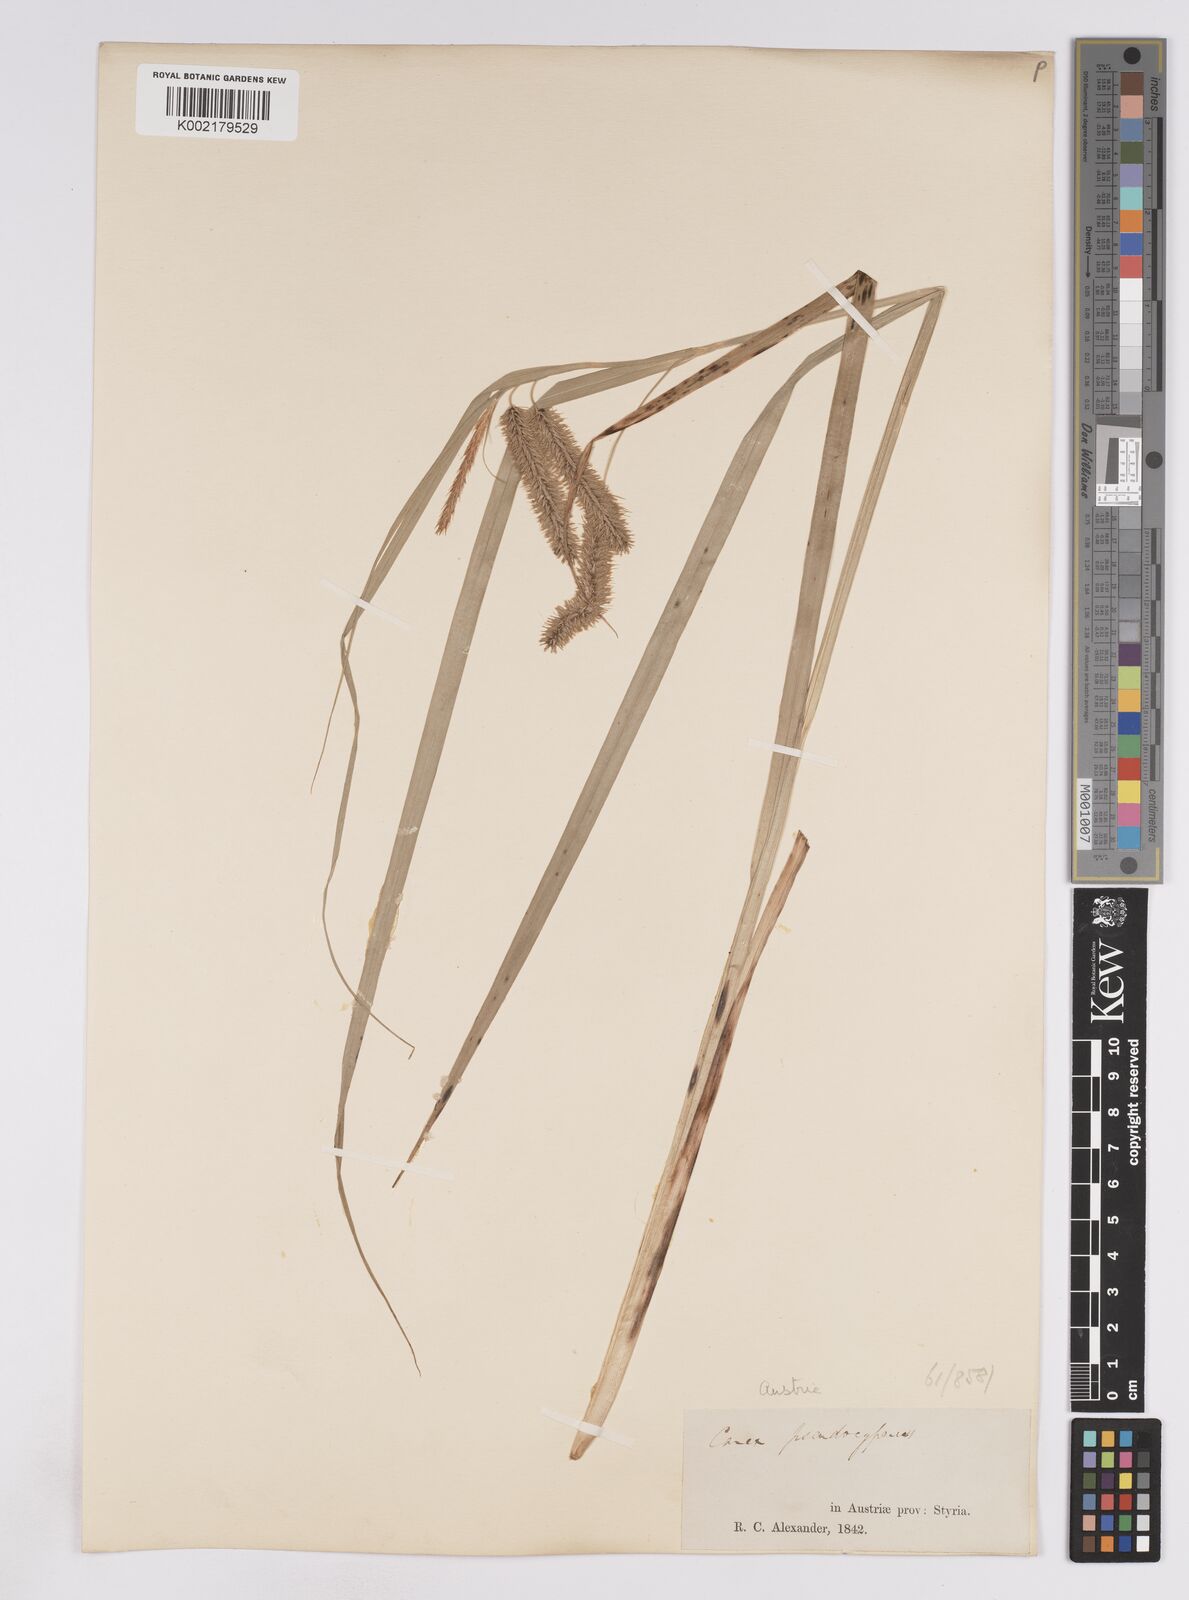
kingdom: Plantae
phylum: Tracheophyta
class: Liliopsida
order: Poales
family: Cyperaceae
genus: Carex
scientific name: Carex pseudocyperus
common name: Cyperus sedge
